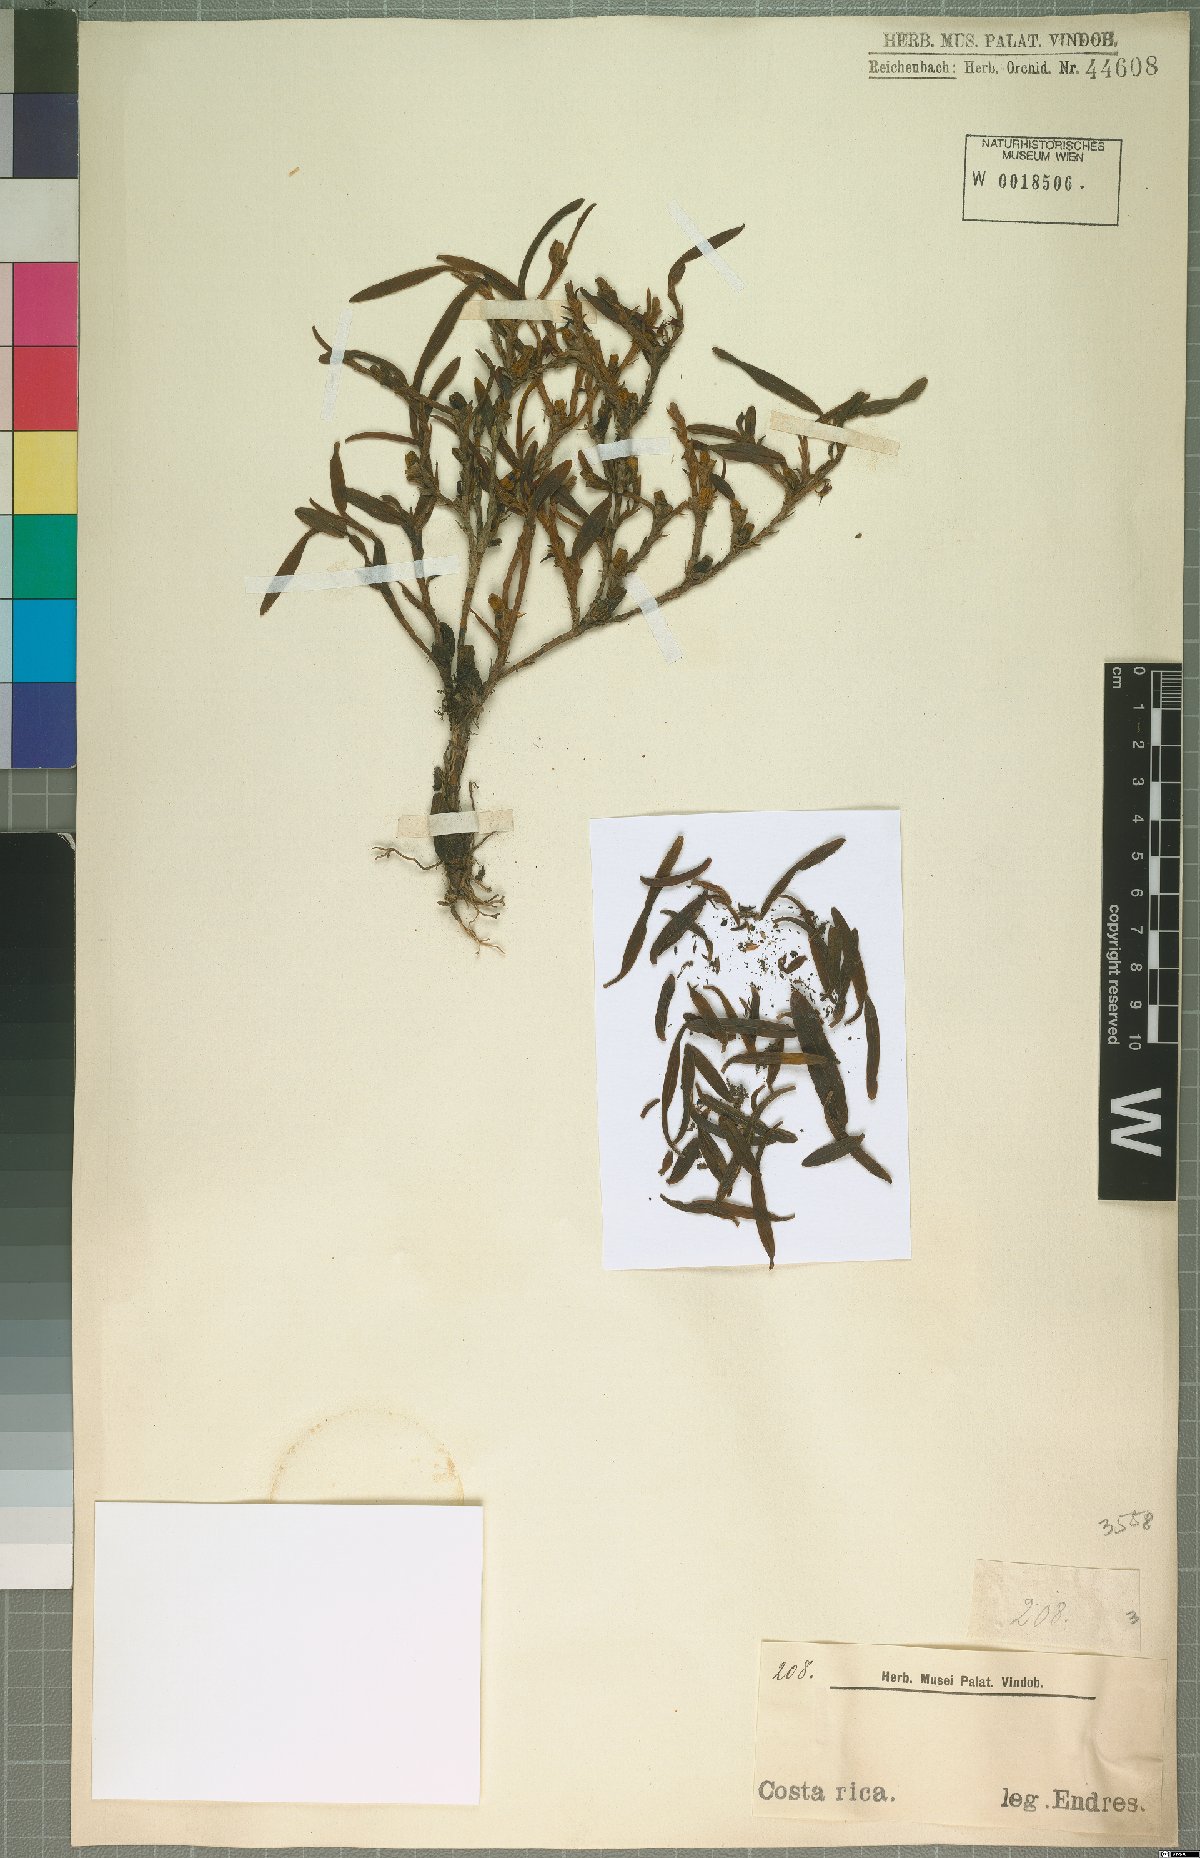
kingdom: Plantae
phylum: Tracheophyta
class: Liliopsida
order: Asparagales
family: Orchidaceae
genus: Maxillaria
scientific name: Maxillaria
